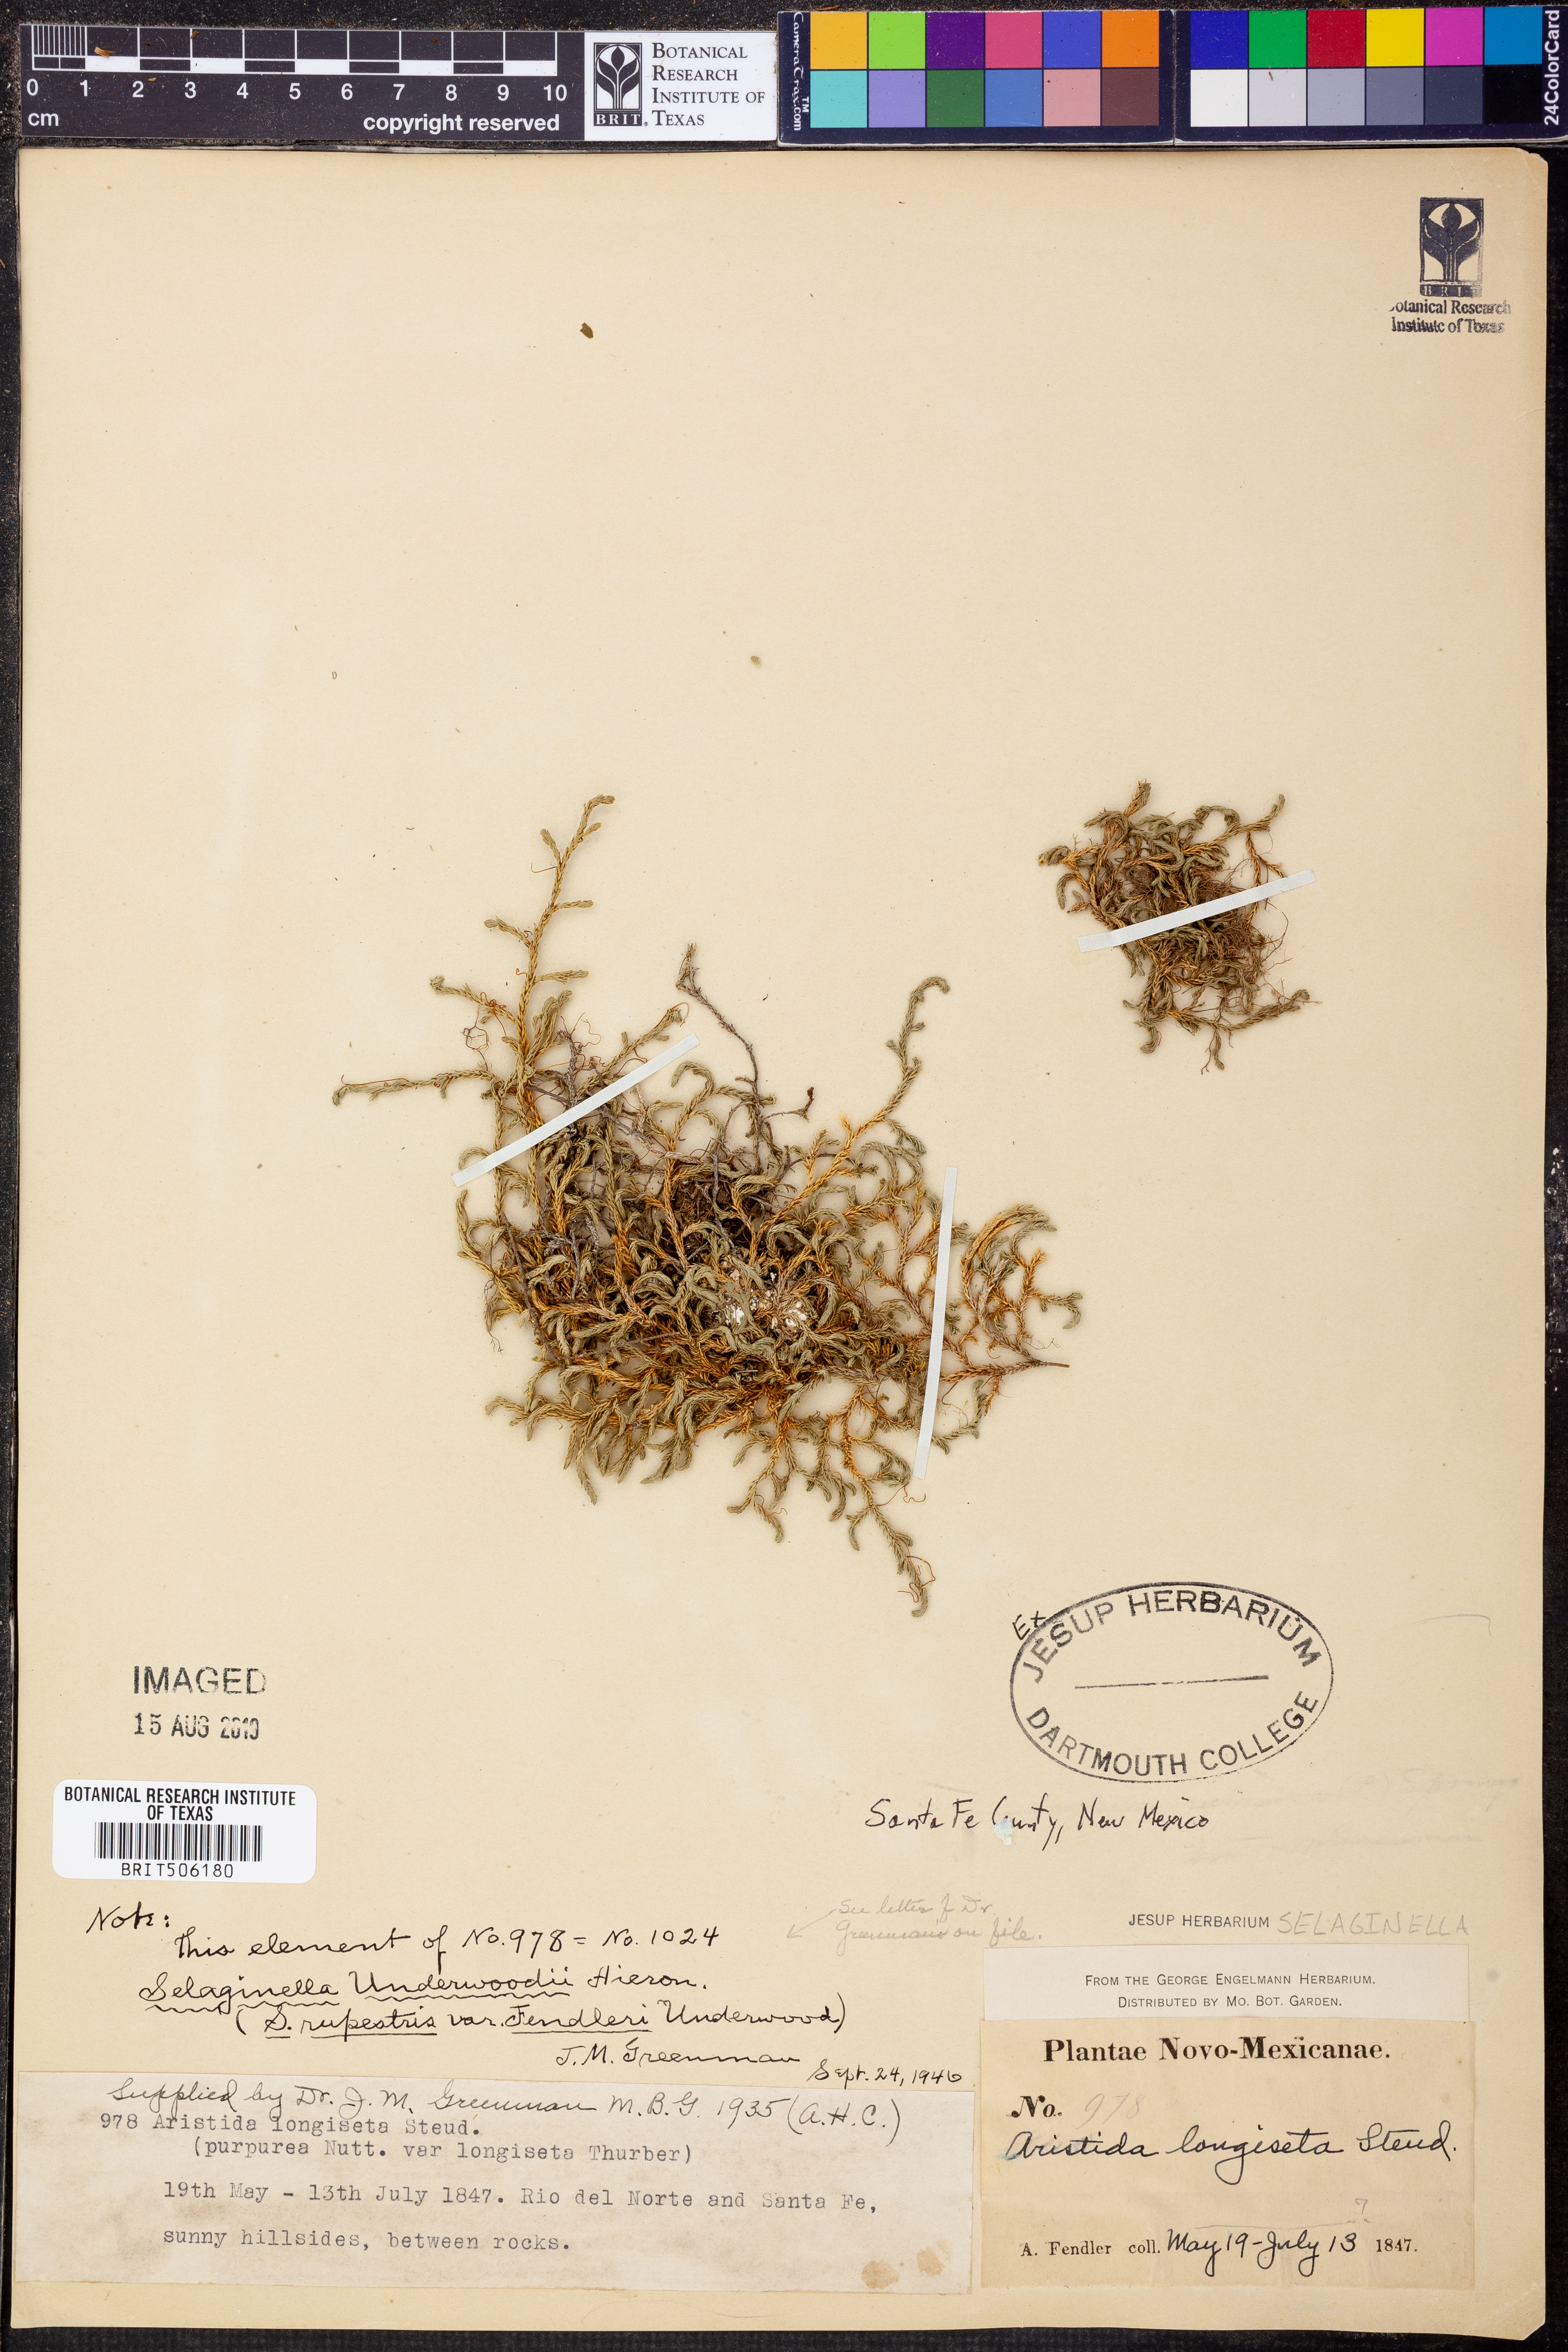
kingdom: Plantae
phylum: Tracheophyta
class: Lycopodiopsida
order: Selaginellales
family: Selaginellaceae
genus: Selaginella
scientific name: Selaginella underwoodii
